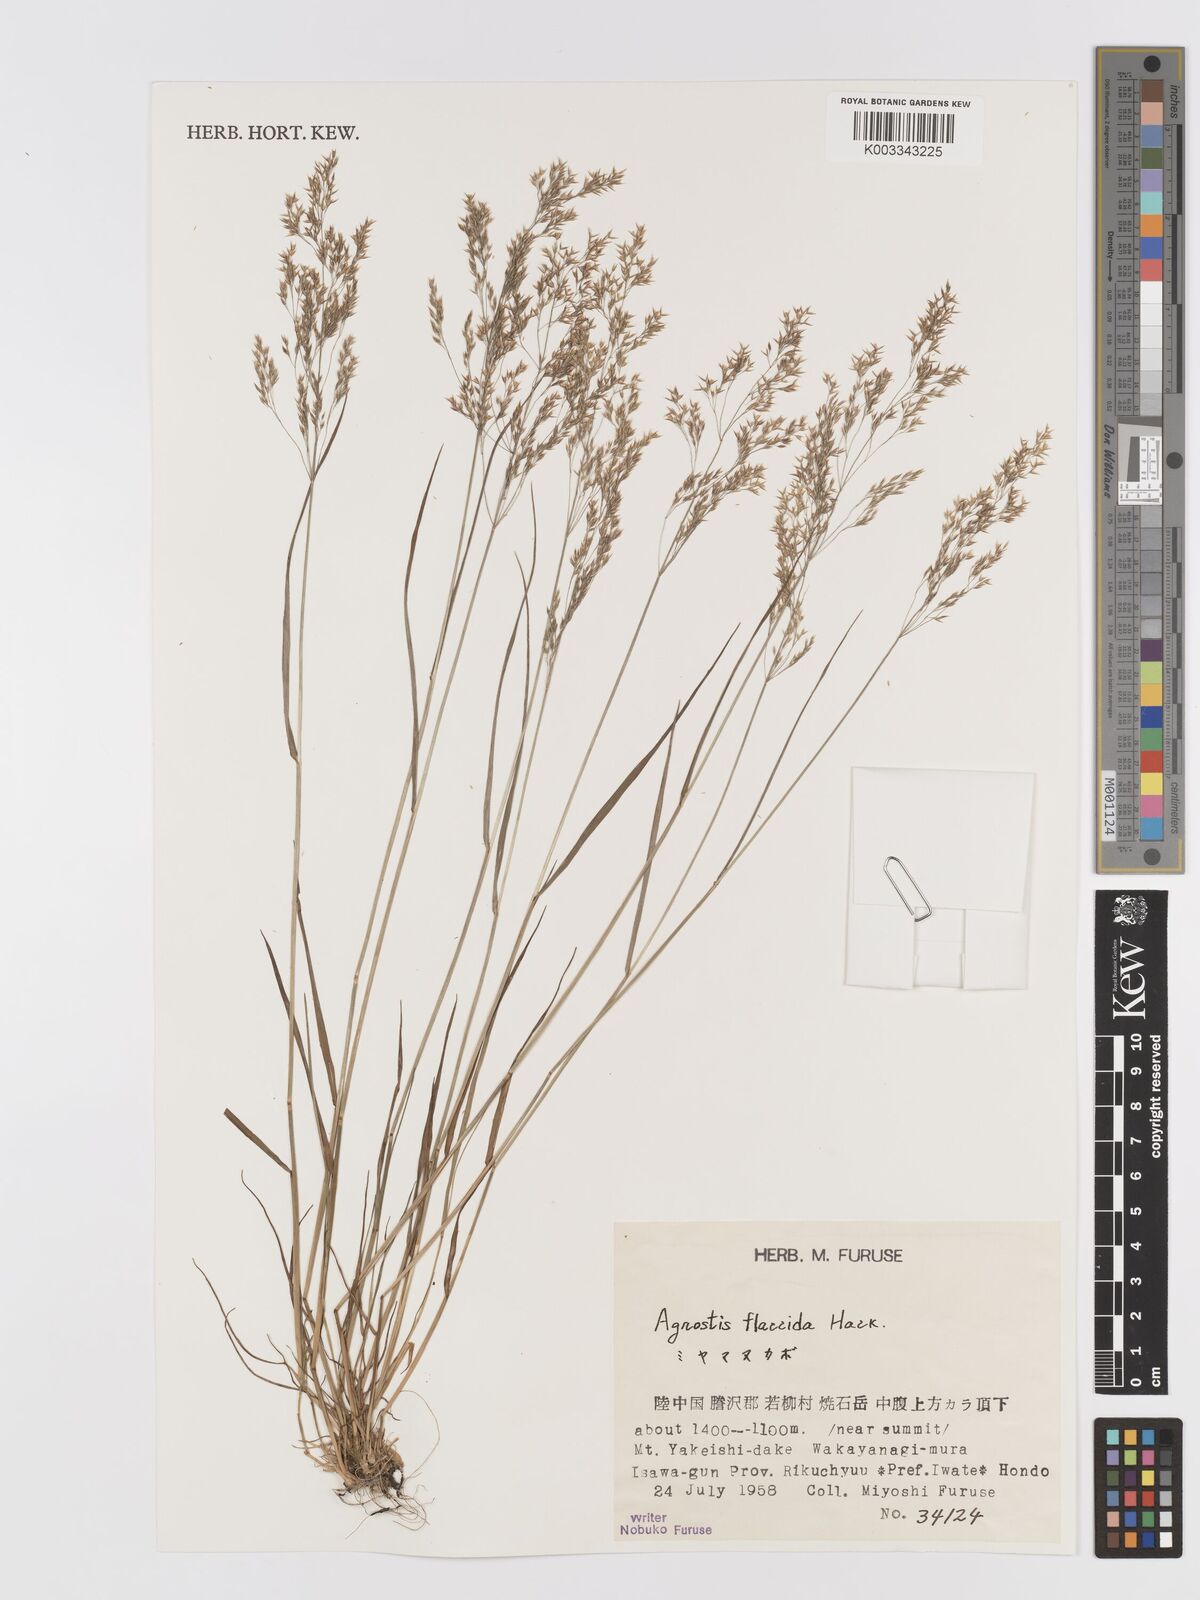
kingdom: Plantae
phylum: Tracheophyta
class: Liliopsida
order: Poales
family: Poaceae
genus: Agrostis
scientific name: Agrostis flaccida
